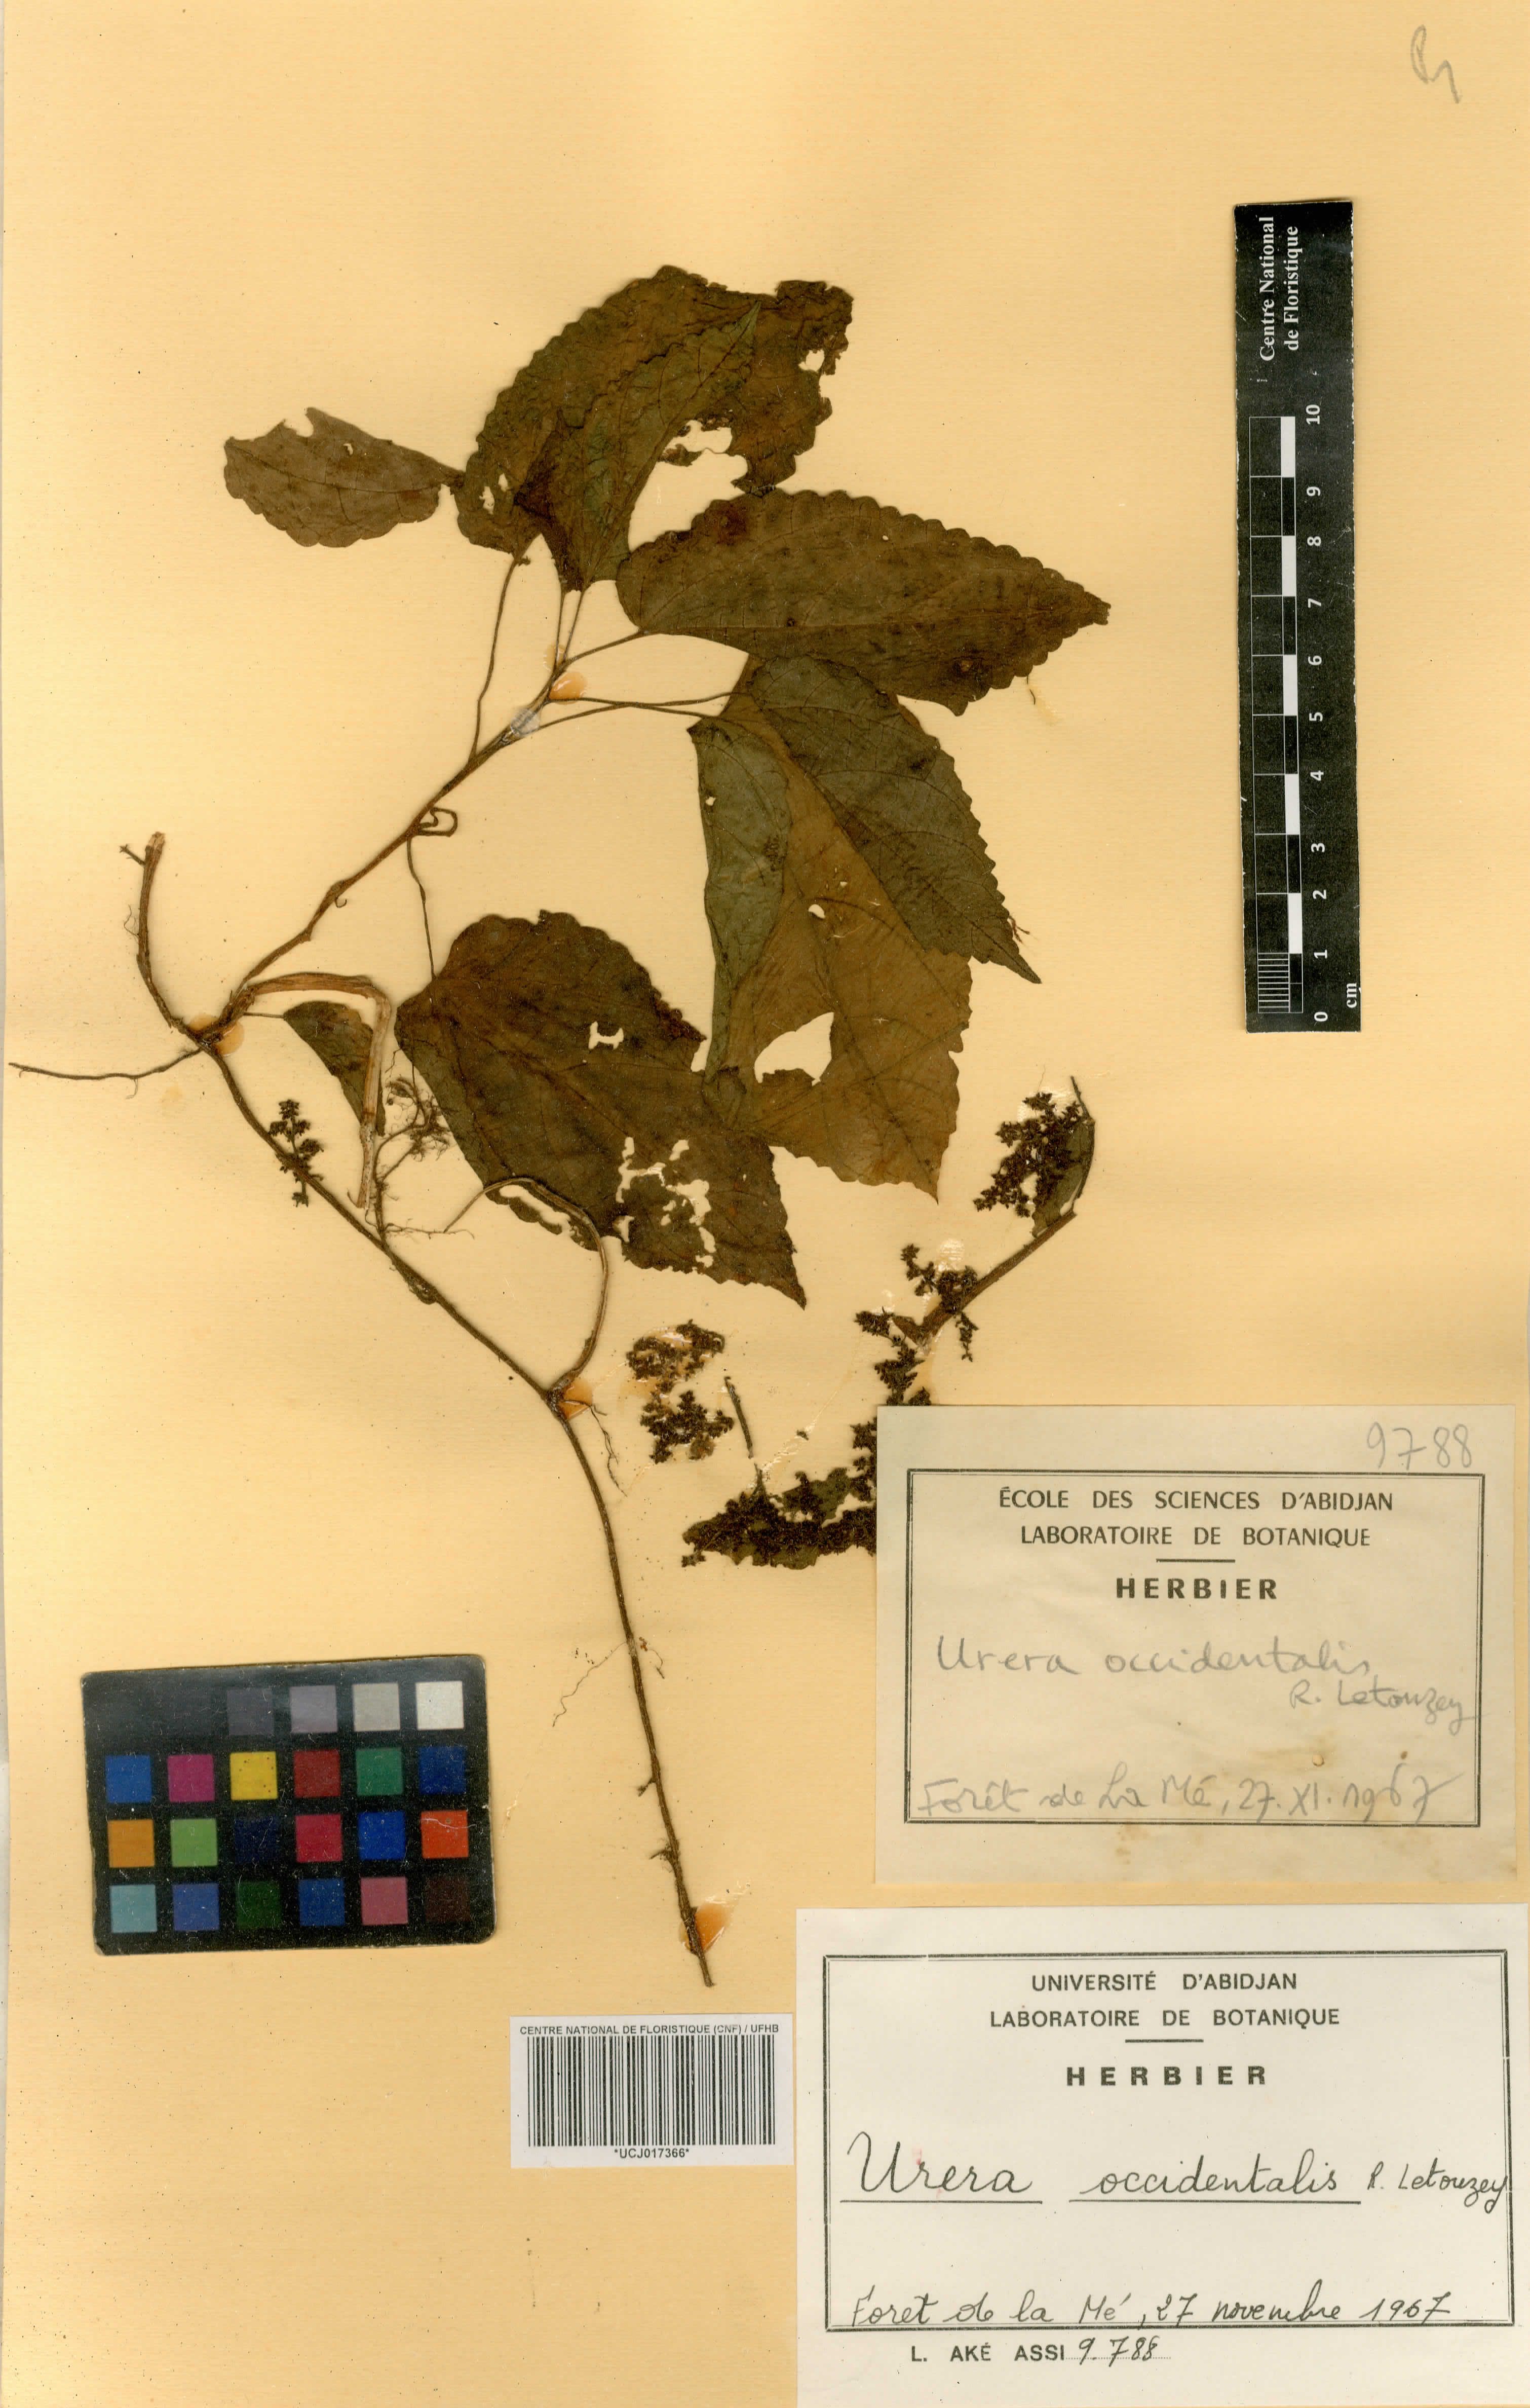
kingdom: Plantae
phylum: Tracheophyta
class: Magnoliopsida
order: Rosales
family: Urticaceae
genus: Scepocarpus
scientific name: Scepocarpus keayi
